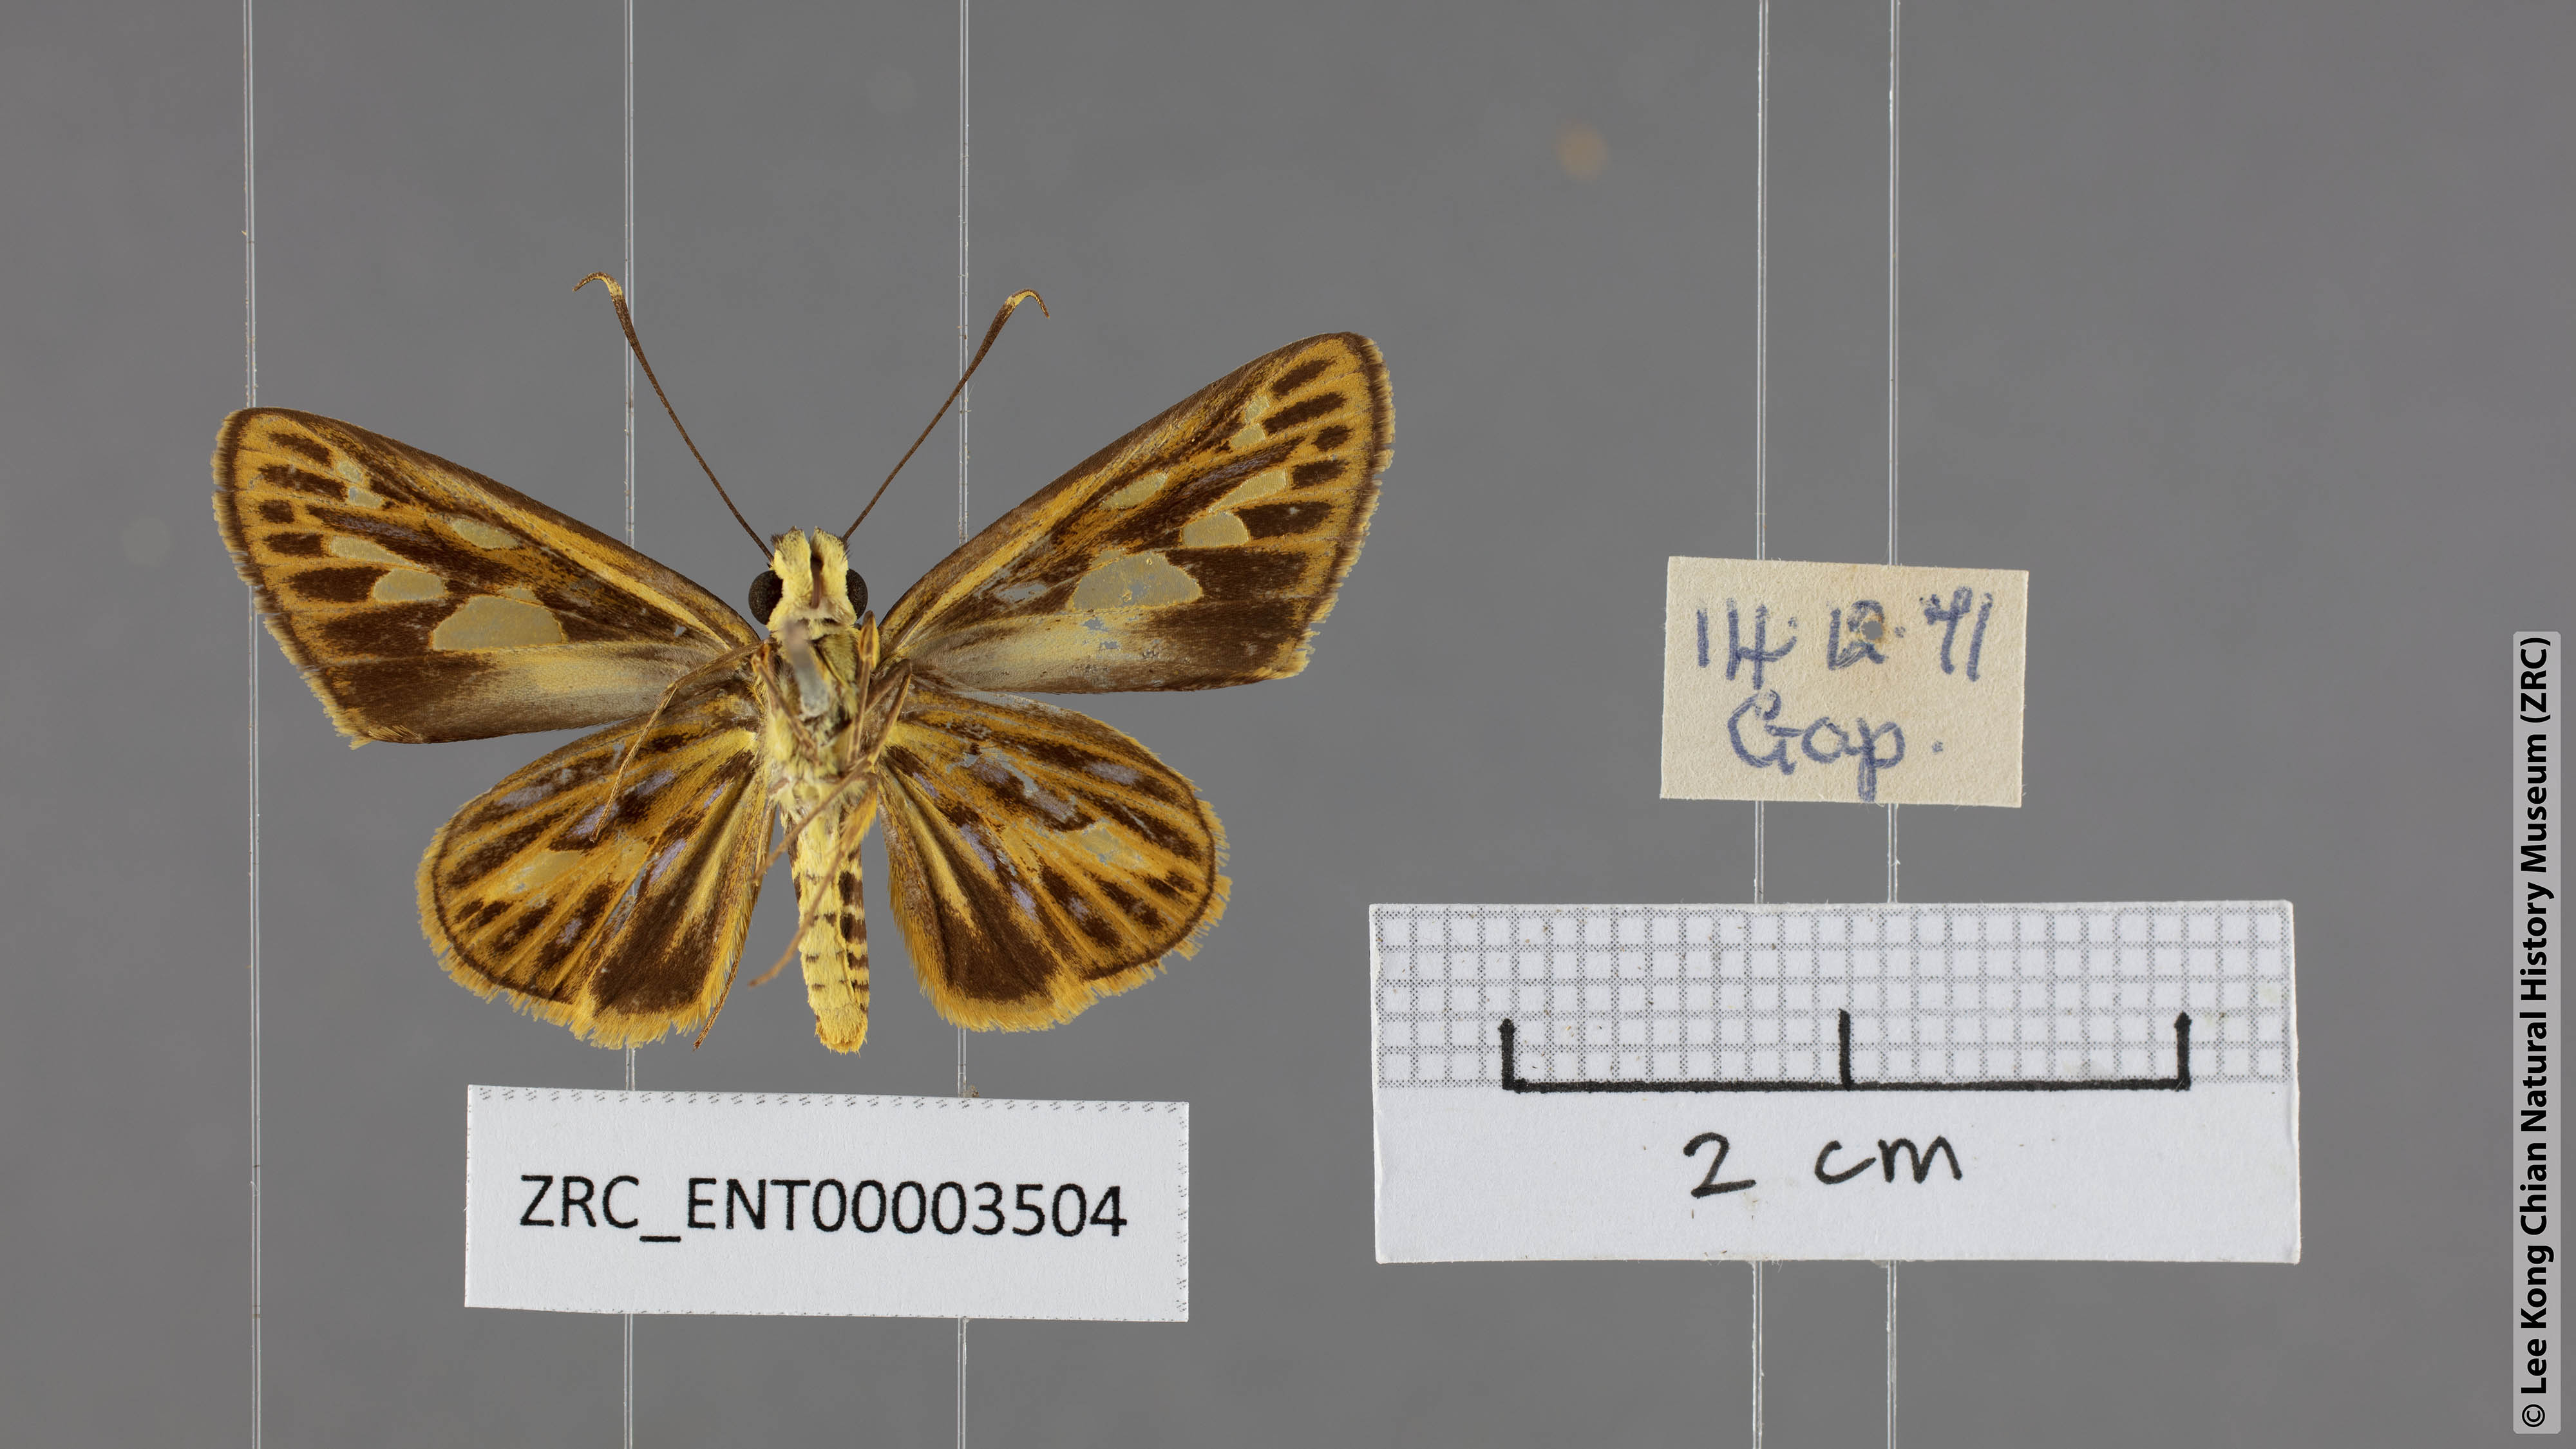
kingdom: Animalia
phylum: Arthropoda
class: Insecta
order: Lepidoptera
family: Hesperiidae
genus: Pyroneura
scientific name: Pyroneura flavia
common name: Lesser lancer
